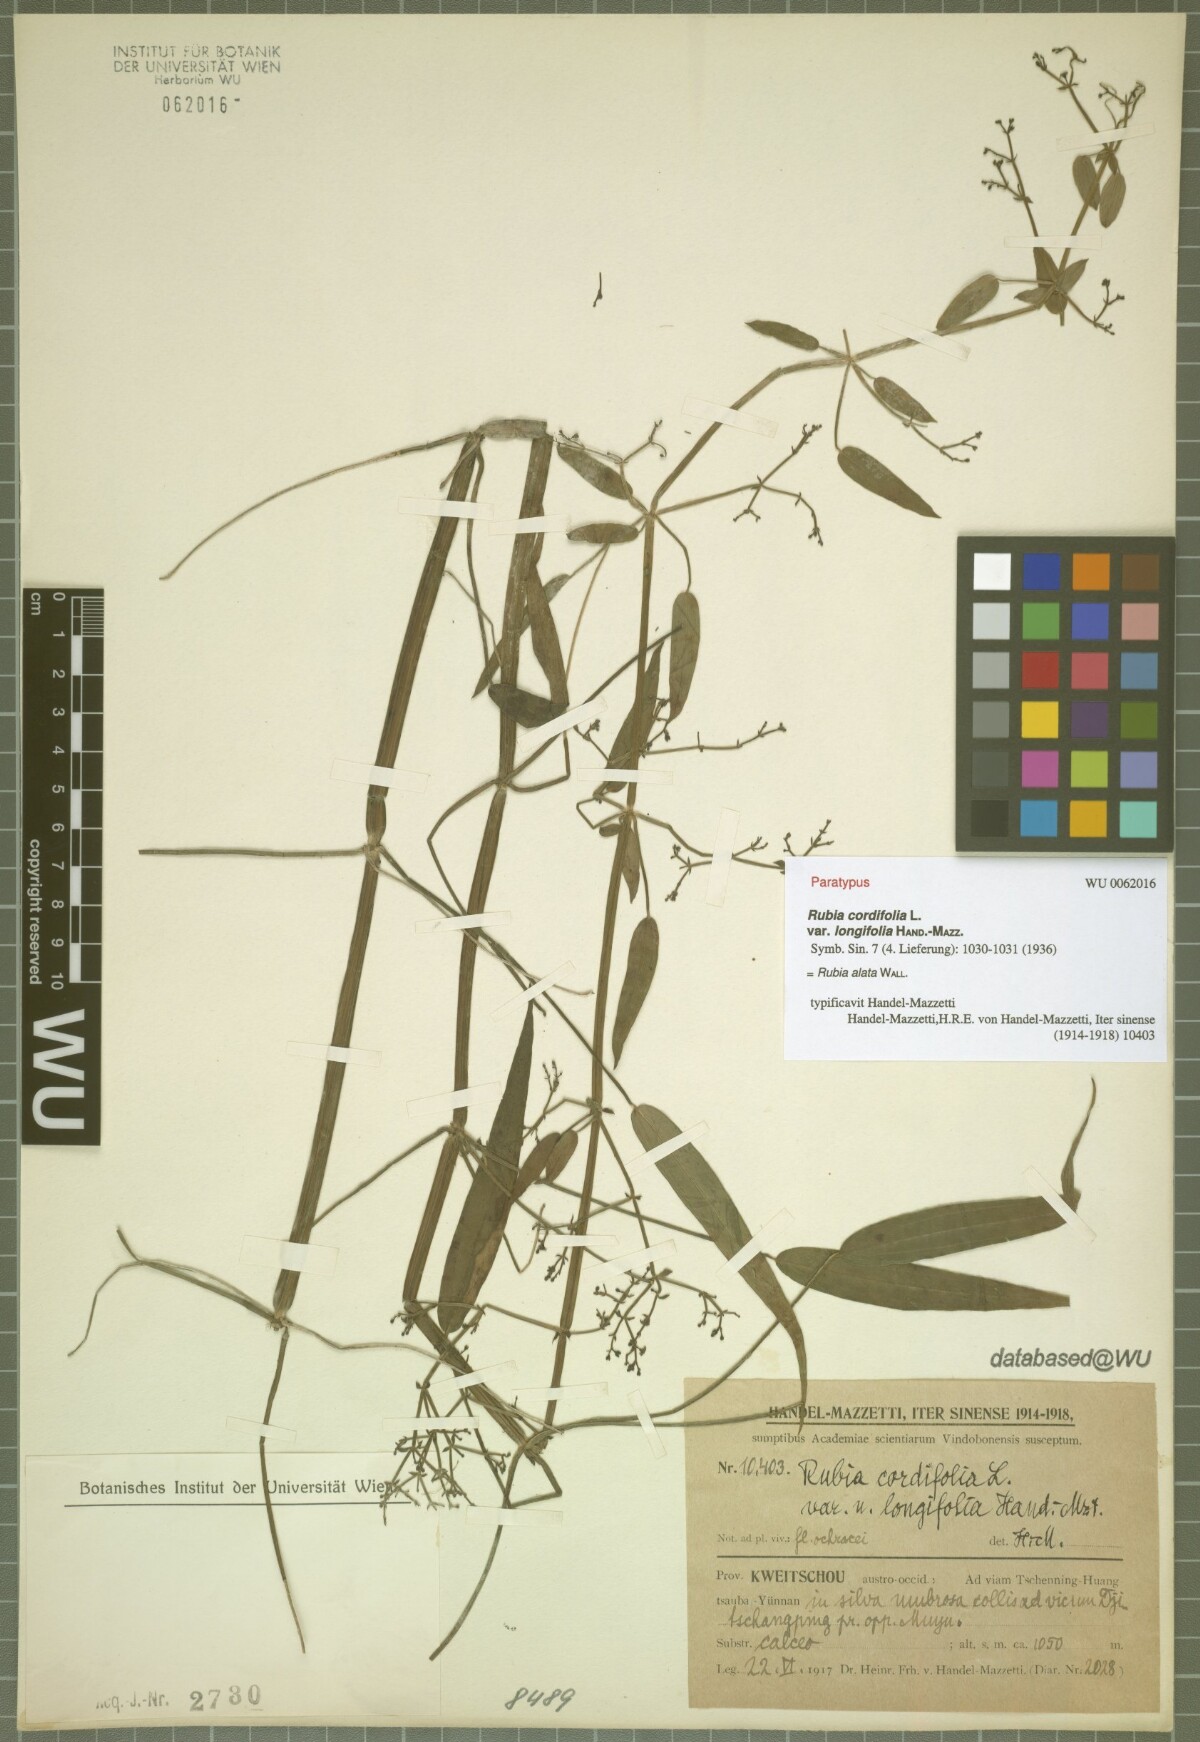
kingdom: Plantae
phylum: Tracheophyta
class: Magnoliopsida
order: Gentianales
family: Rubiaceae
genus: Rubia
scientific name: Rubia alata
